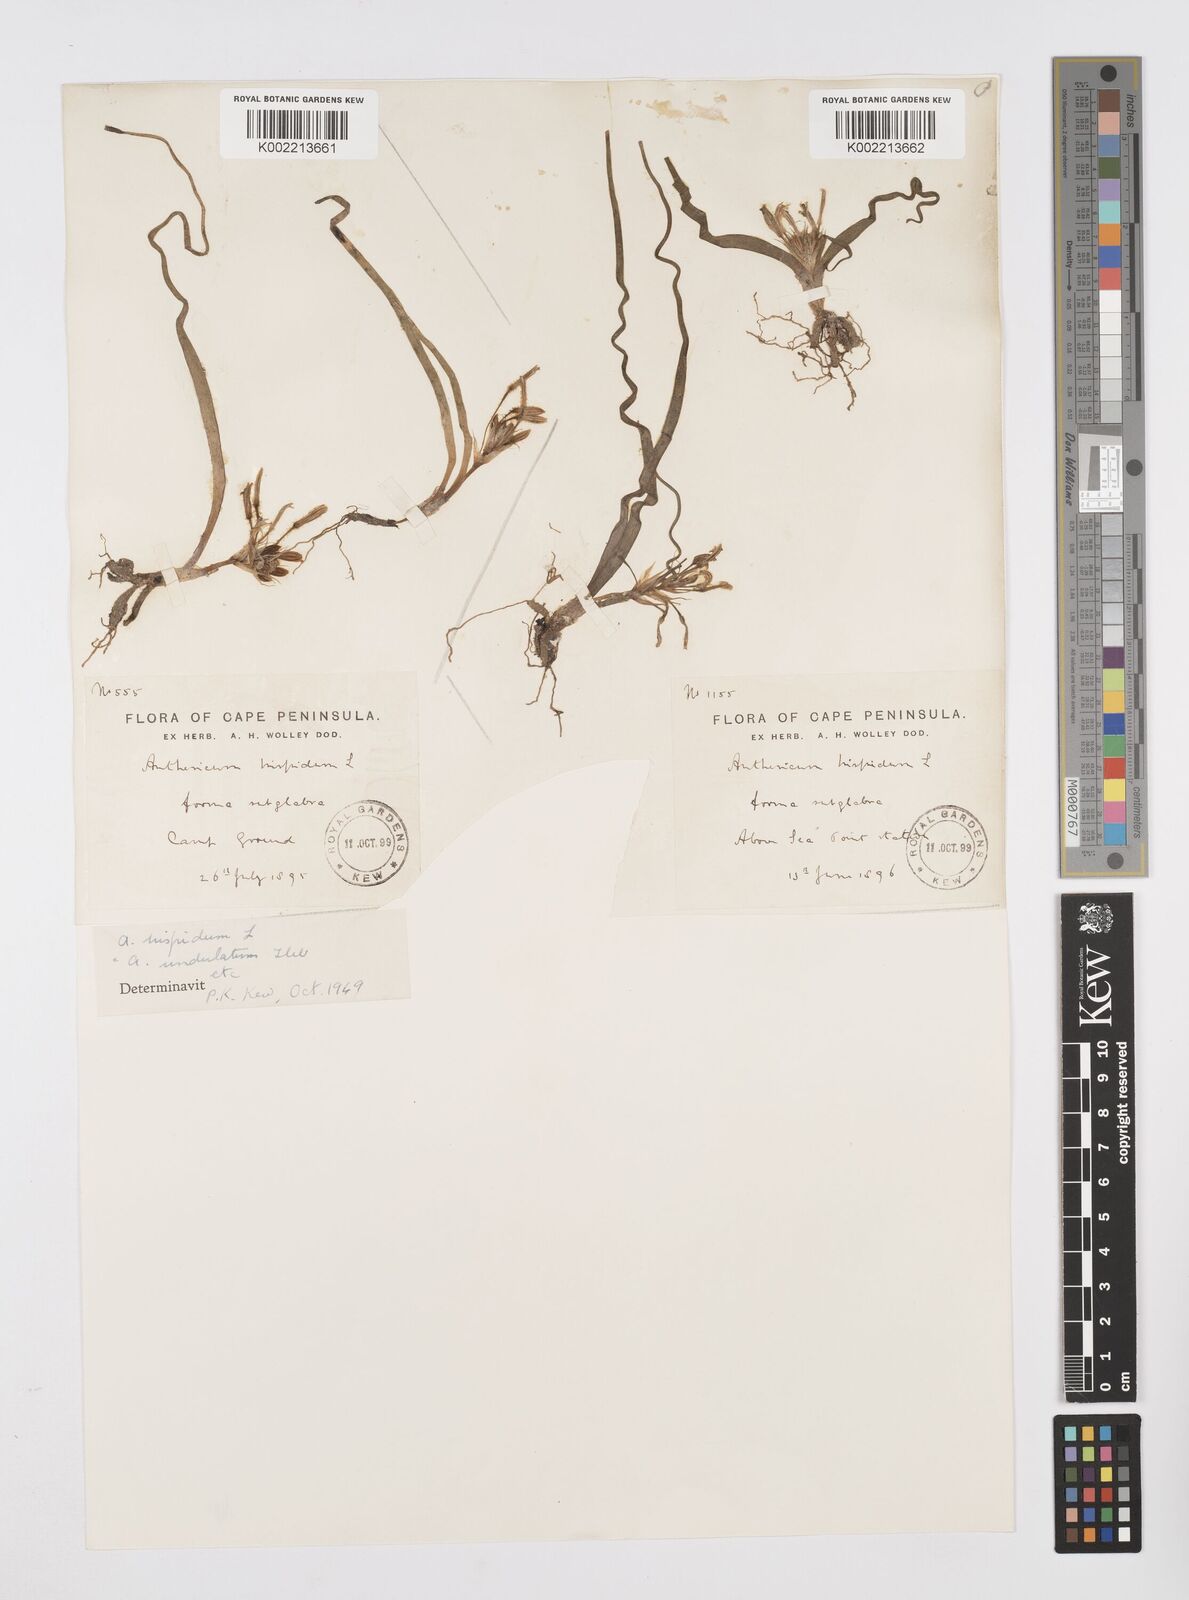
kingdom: Plantae
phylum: Tracheophyta
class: Liliopsida
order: Asparagales
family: Asphodelaceae
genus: Trachyandra
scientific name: Trachyandra hispida
